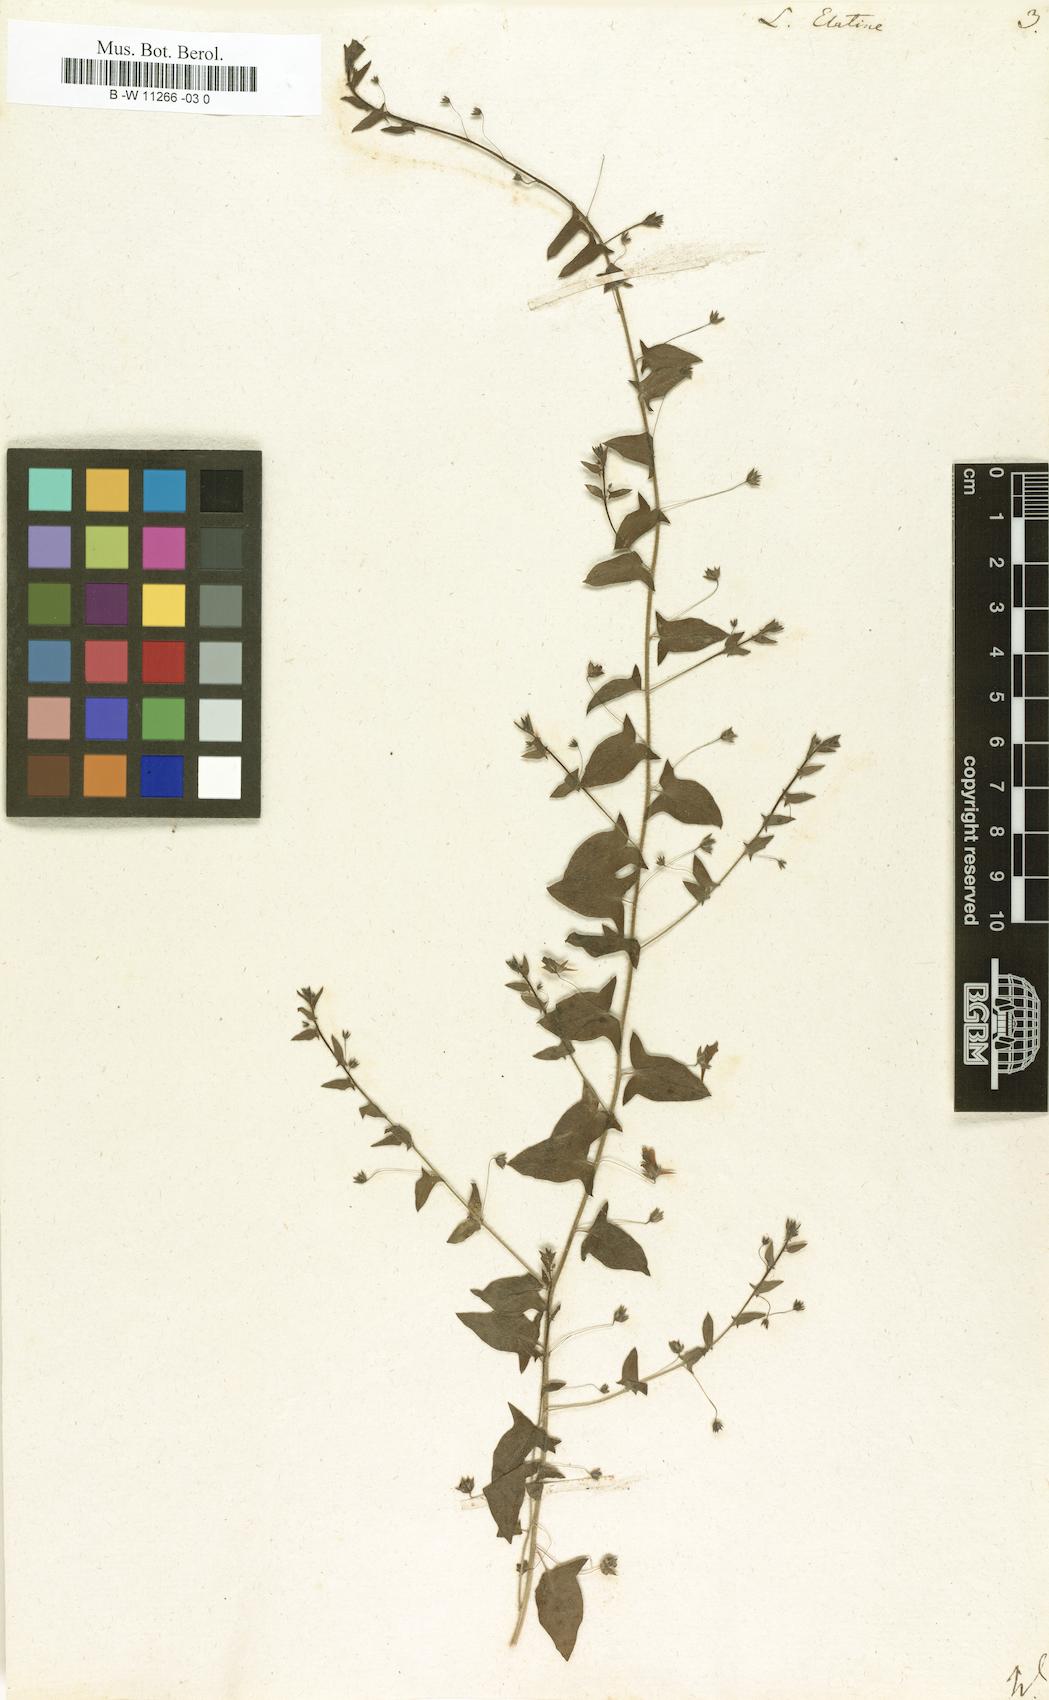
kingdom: Plantae
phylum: Tracheophyta
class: Magnoliopsida
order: Lamiales
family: Plantaginaceae
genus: Linaria
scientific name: Linaria heterophylla
